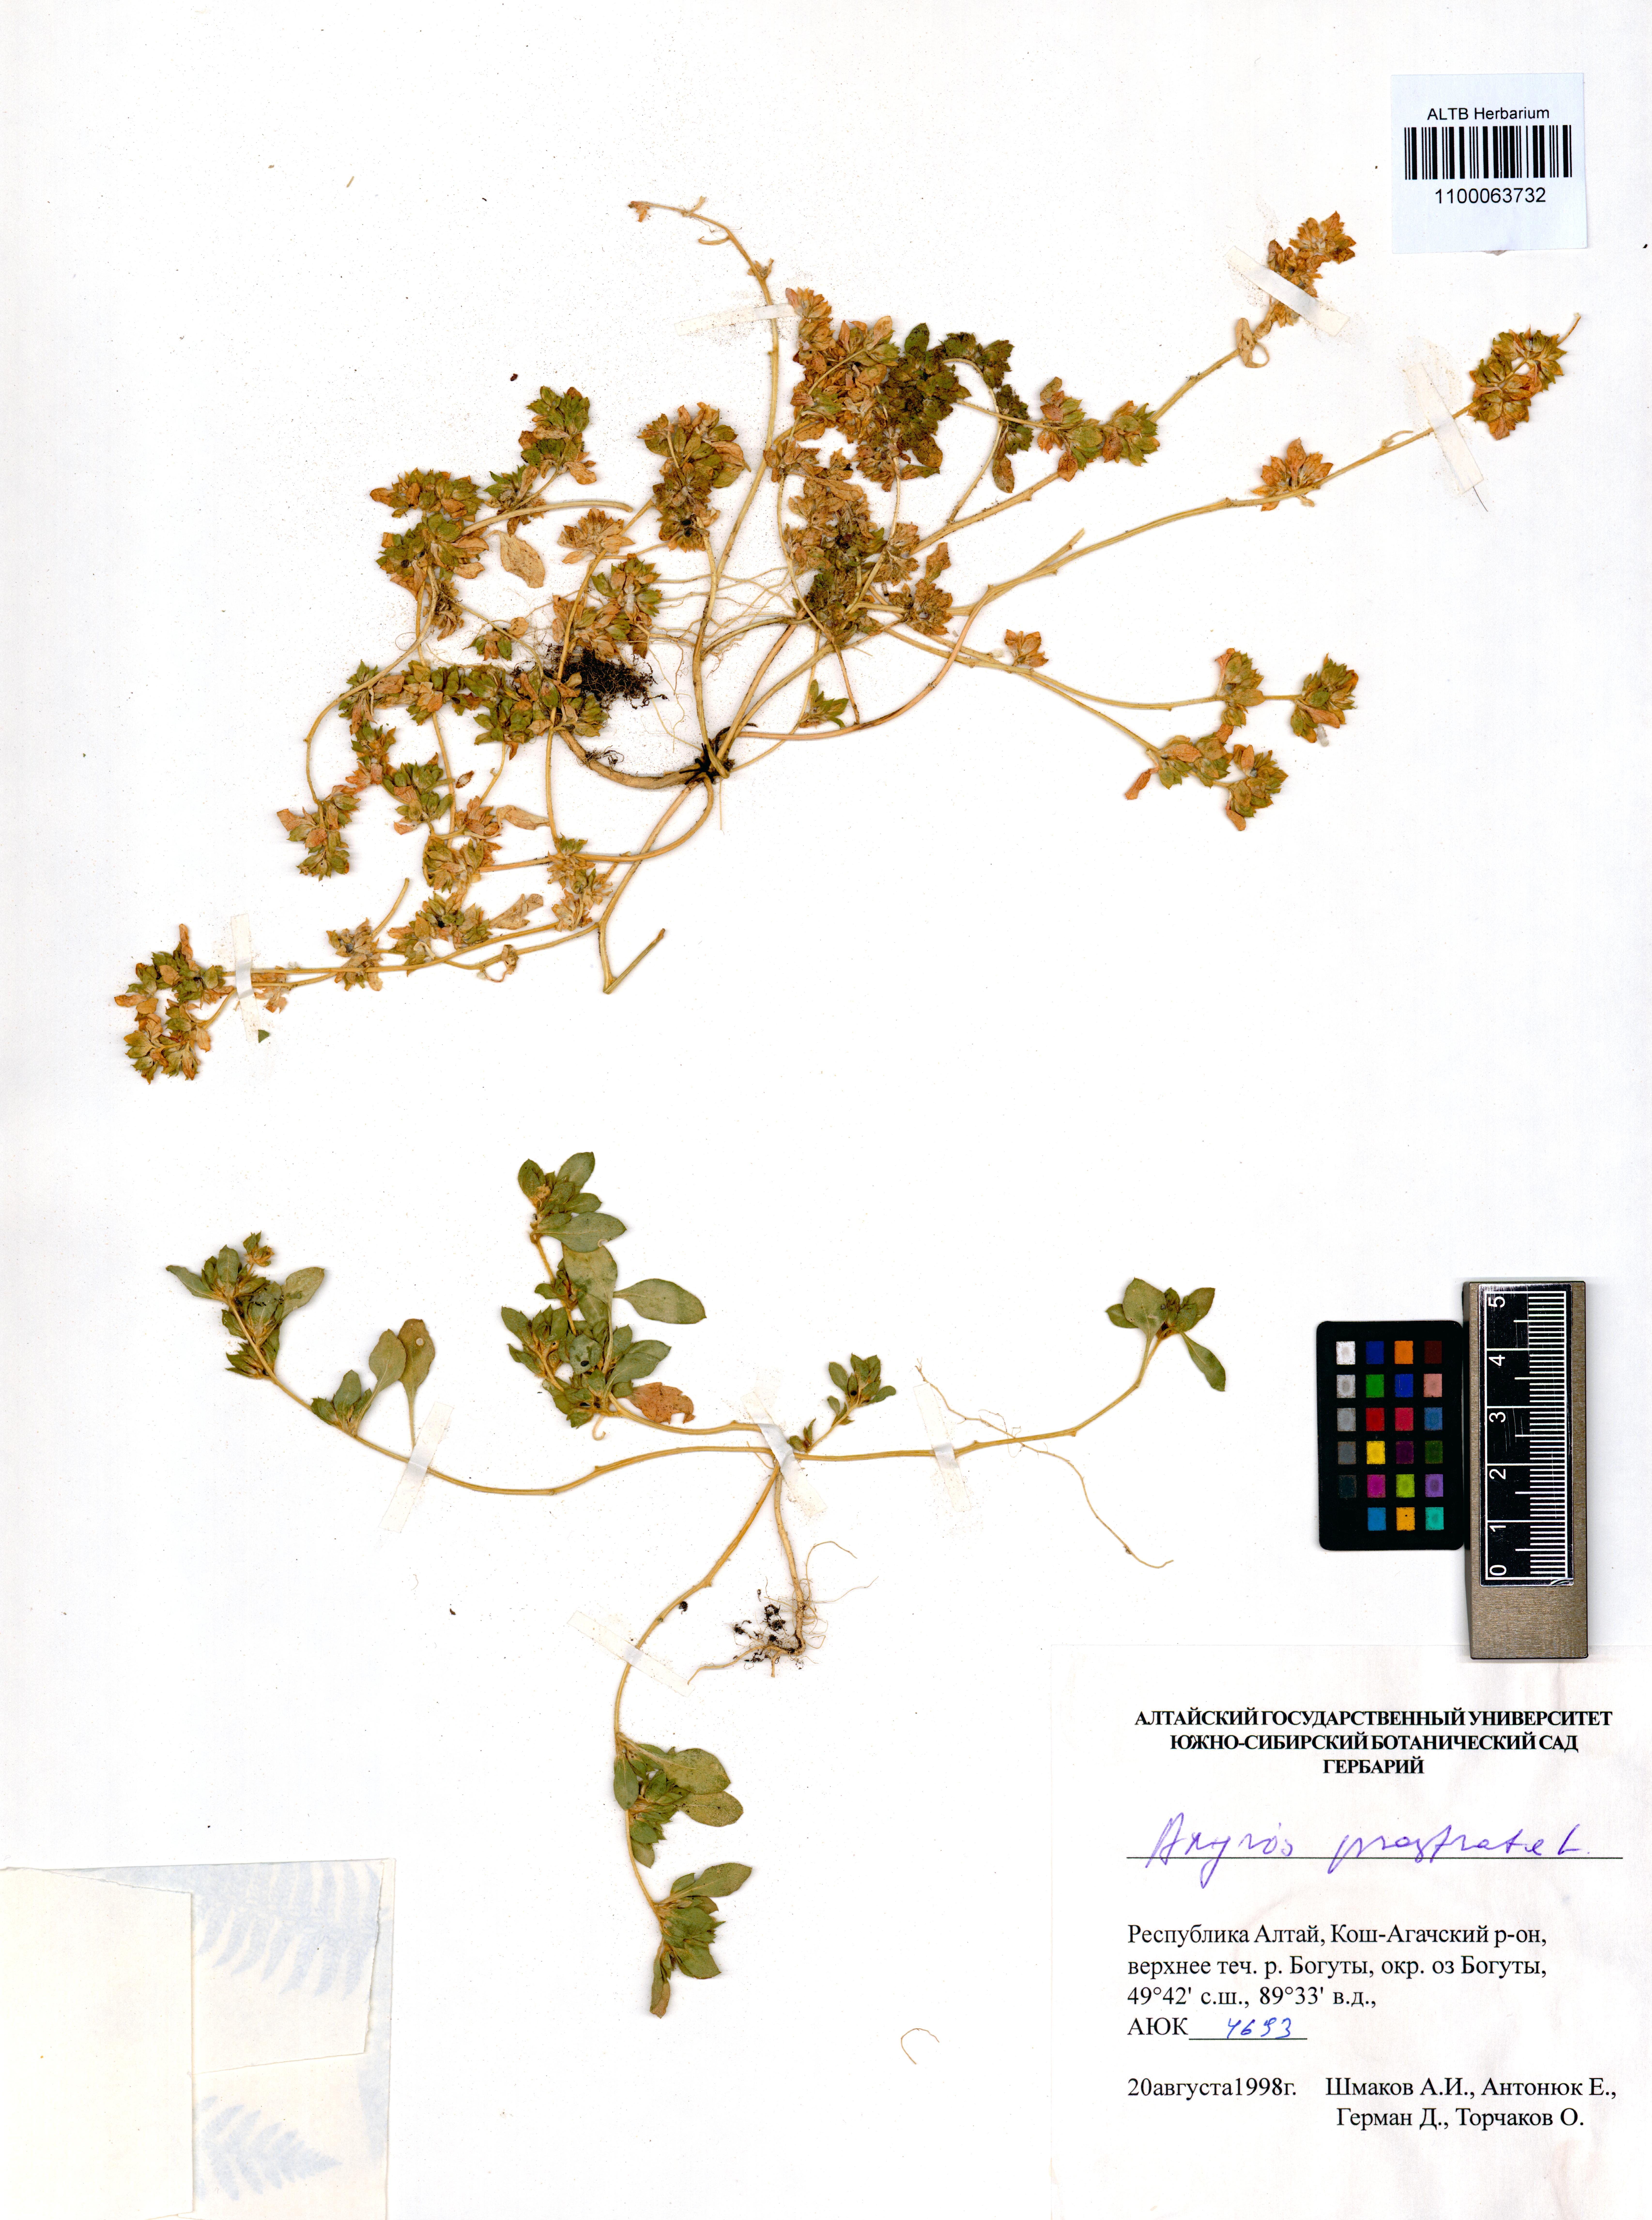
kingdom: Plantae
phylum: Tracheophyta
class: Magnoliopsida
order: Caryophyllales
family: Amaranthaceae
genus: Axyris
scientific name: Axyris prostrata
